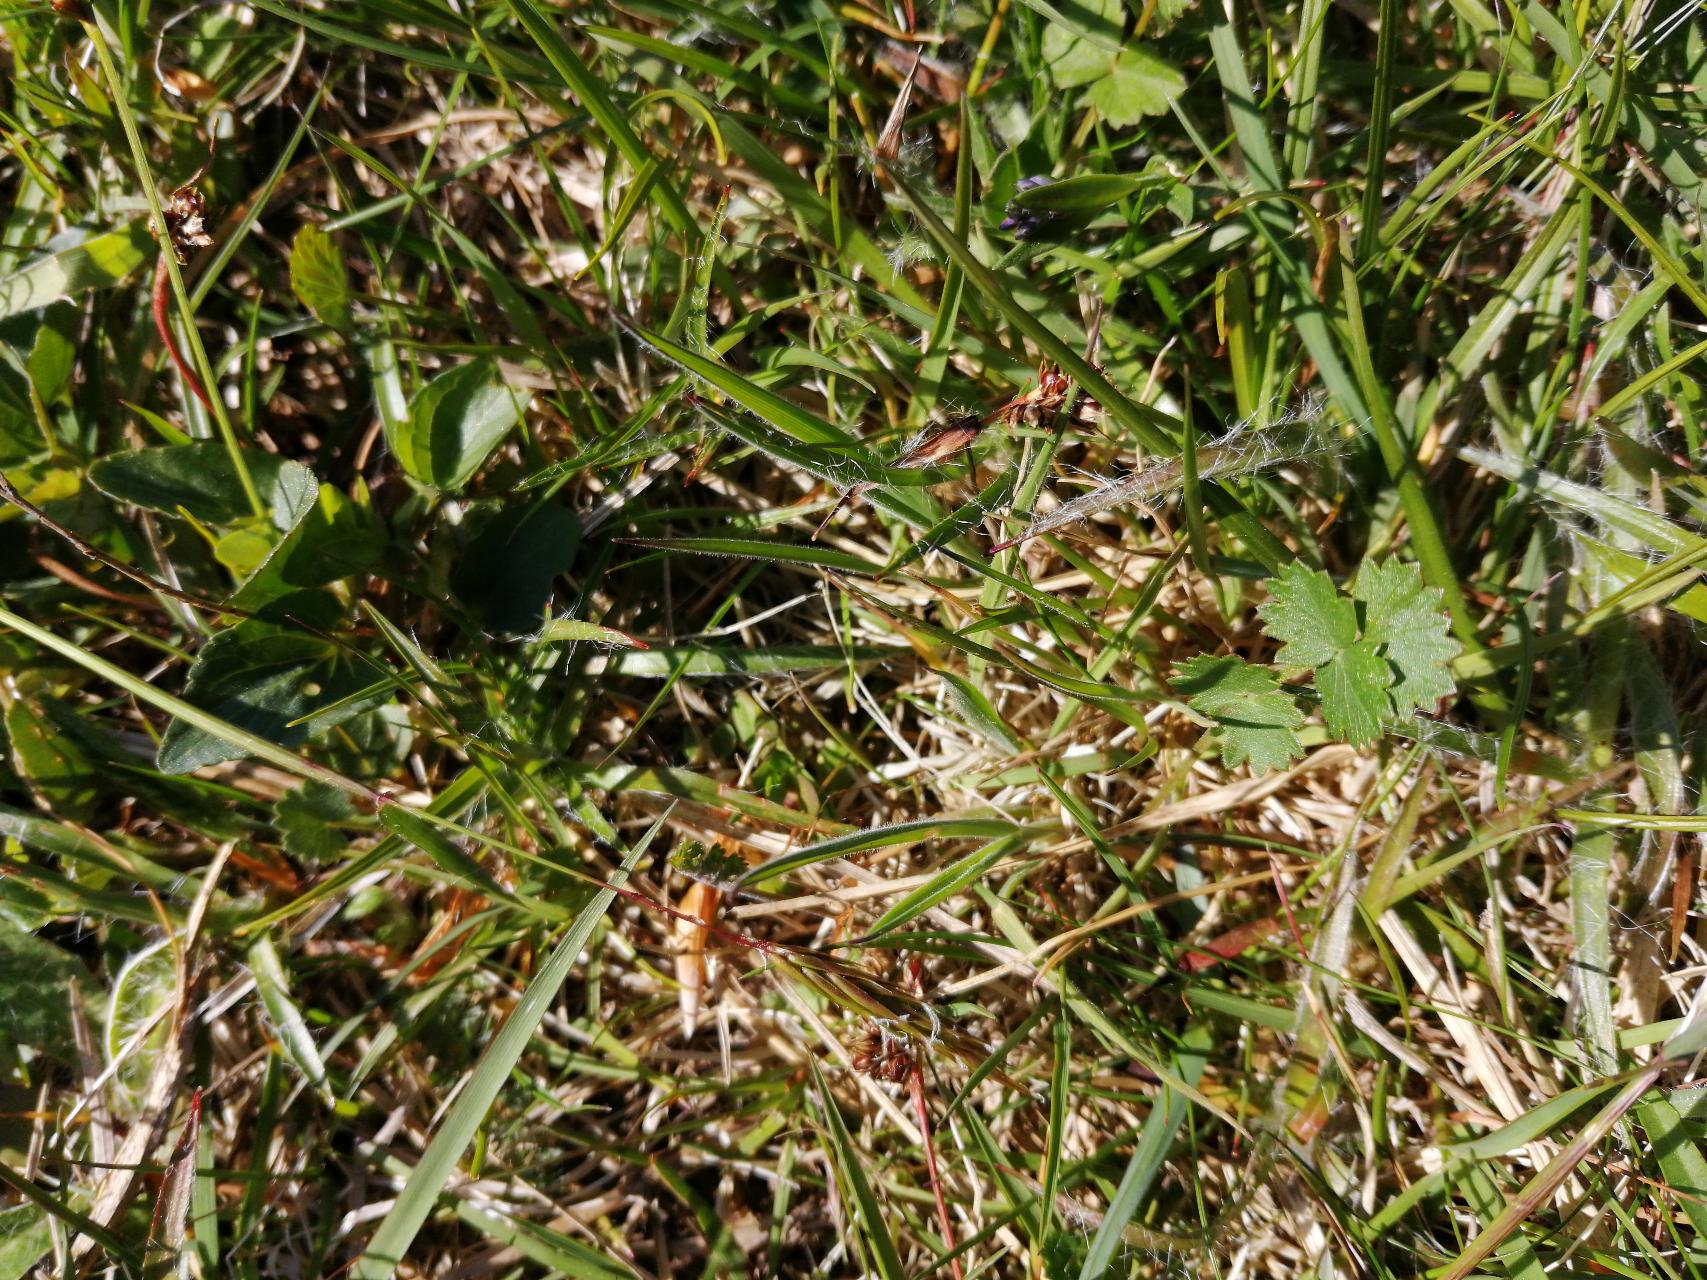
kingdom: Plantae
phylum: Tracheophyta
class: Magnoliopsida
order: Apiales
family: Apiaceae
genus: Pimpinella
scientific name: Pimpinella saxifraga
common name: Almindelig pimpinelle
